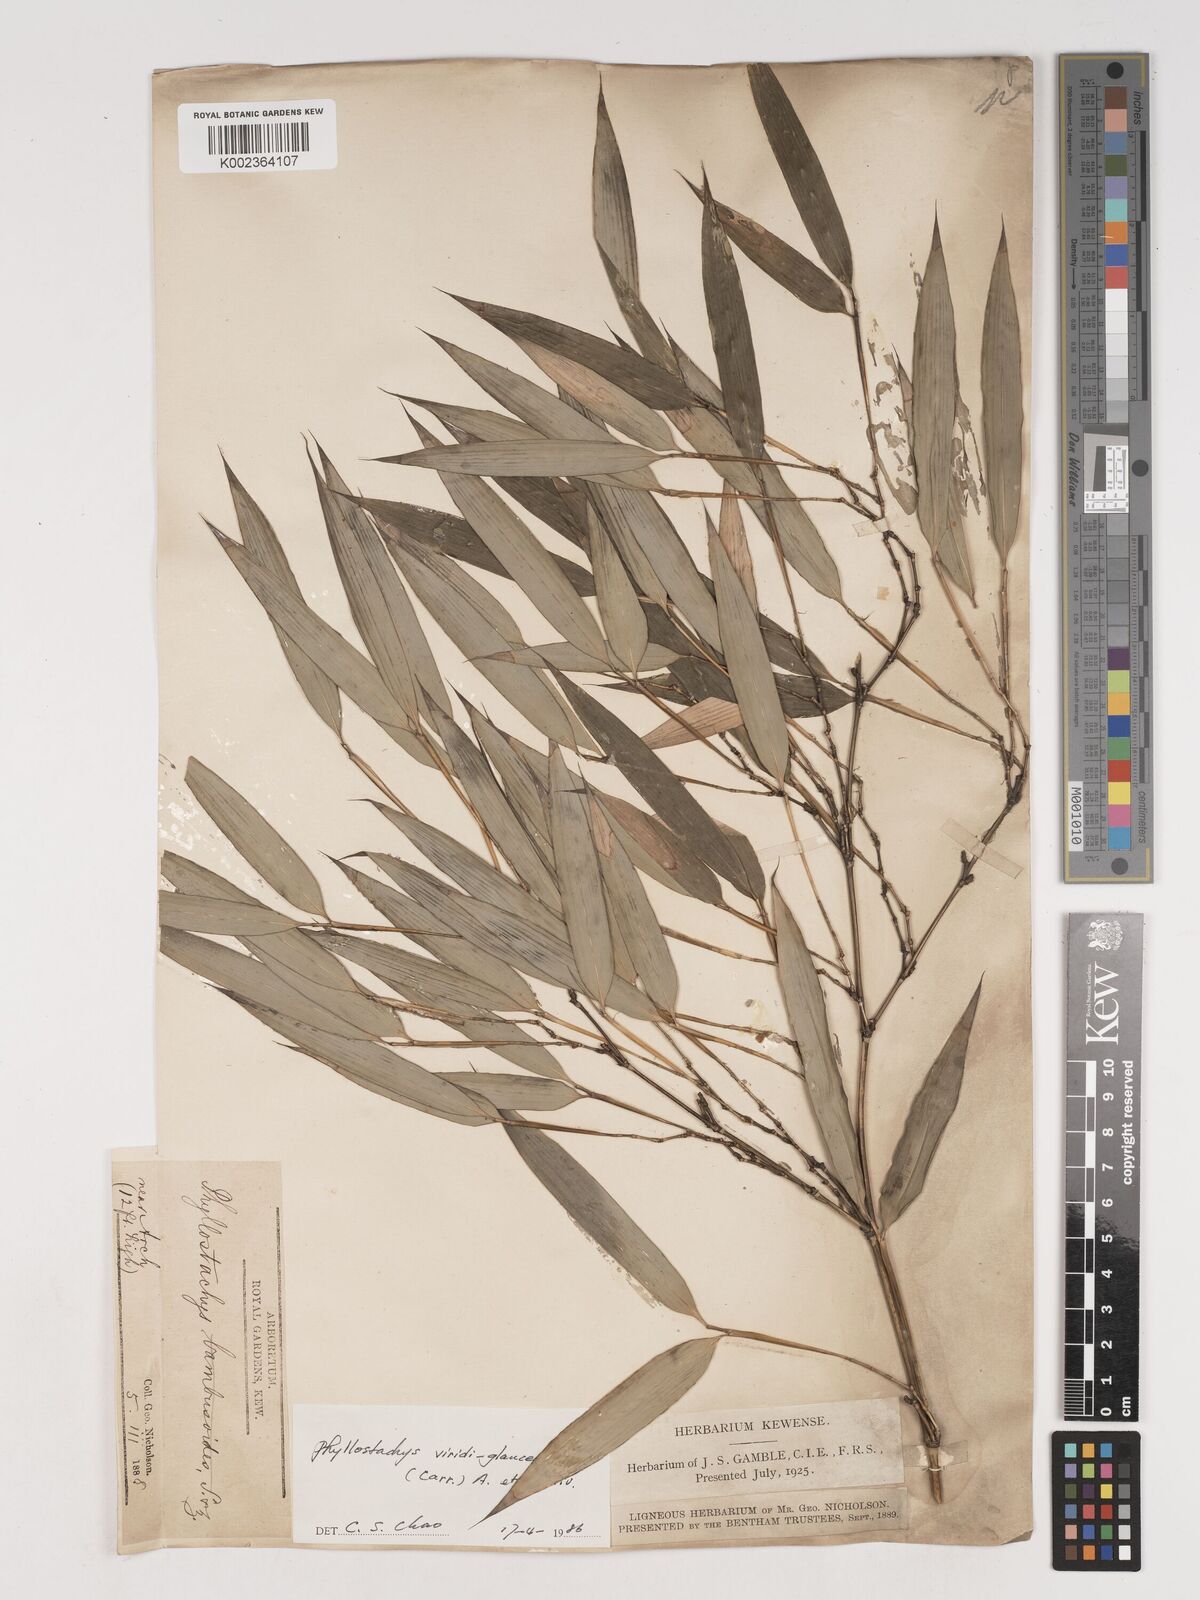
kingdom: Plantae
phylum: Tracheophyta
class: Liliopsida
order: Poales
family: Poaceae
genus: Phyllostachys
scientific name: Phyllostachys viridiglaucescens
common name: Greenwax golden bamboo
